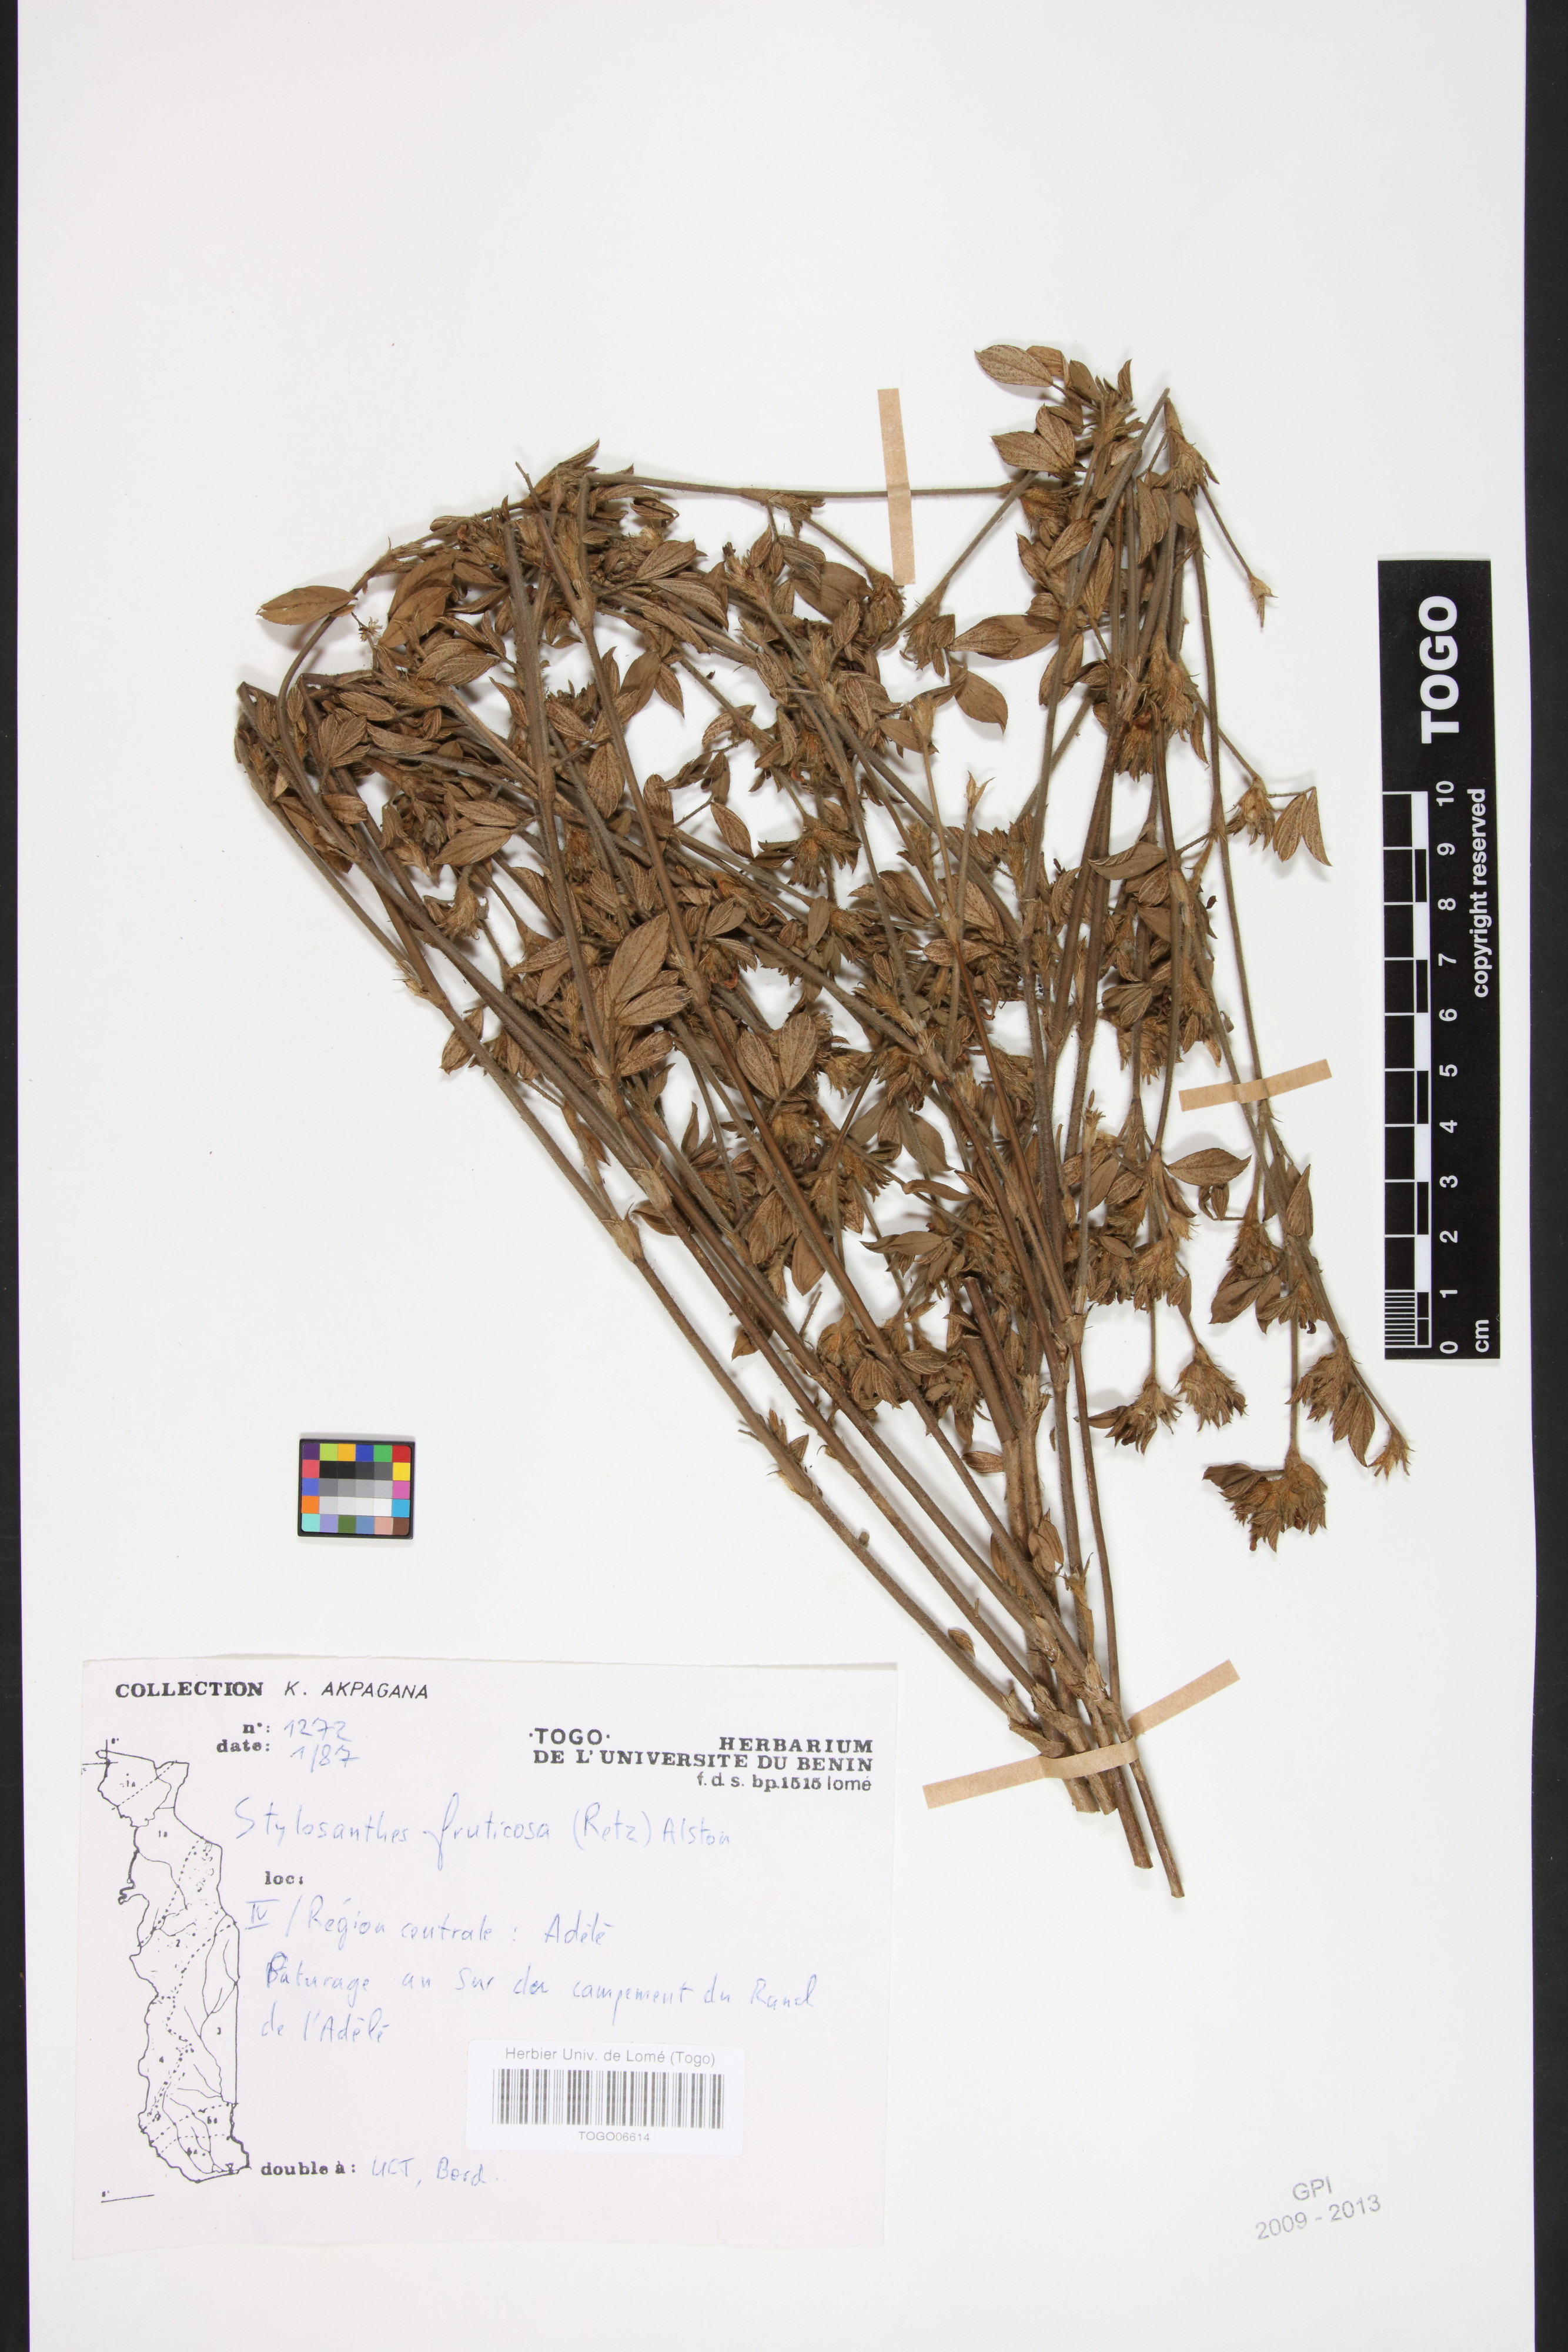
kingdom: Plantae
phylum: Tracheophyta
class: Magnoliopsida
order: Fabales
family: Fabaceae
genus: Stylosanthes
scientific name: Stylosanthes fruticosa
